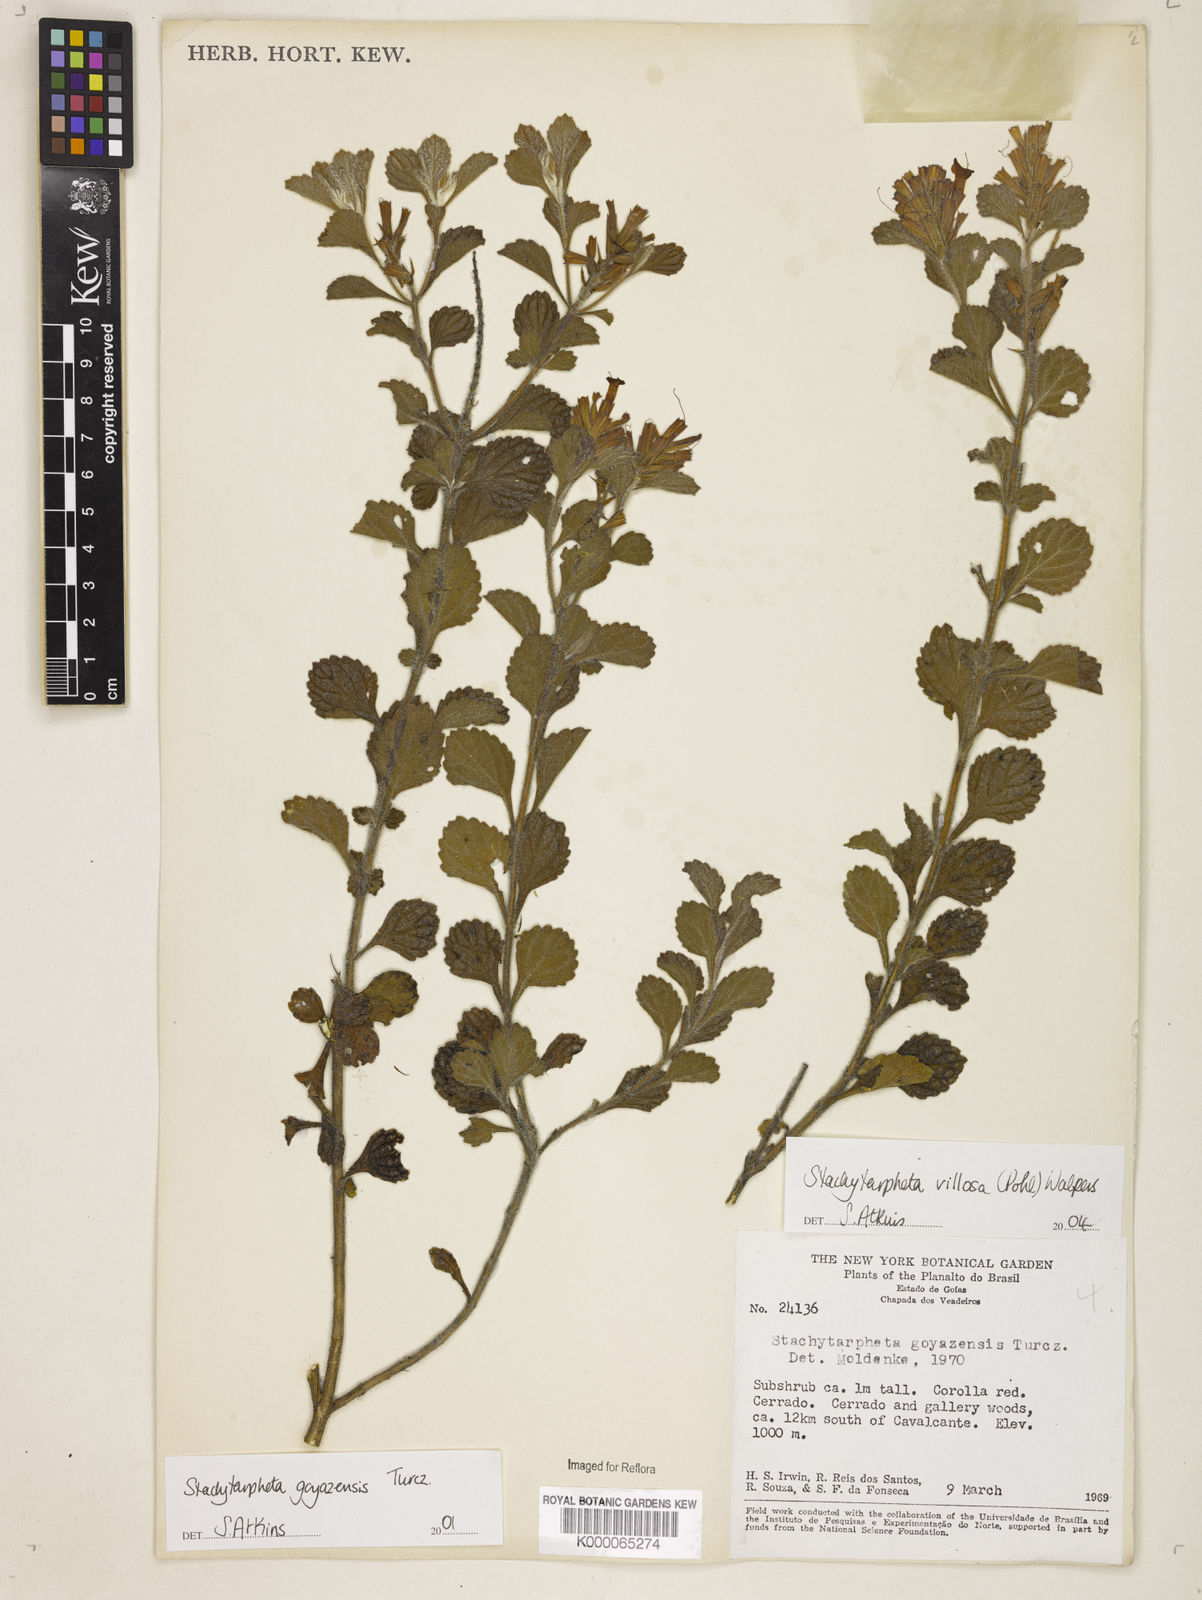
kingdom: Plantae
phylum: Tracheophyta
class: Magnoliopsida
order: Lamiales
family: Verbenaceae
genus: Stachytarpheta
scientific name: Stachytarpheta villosa
